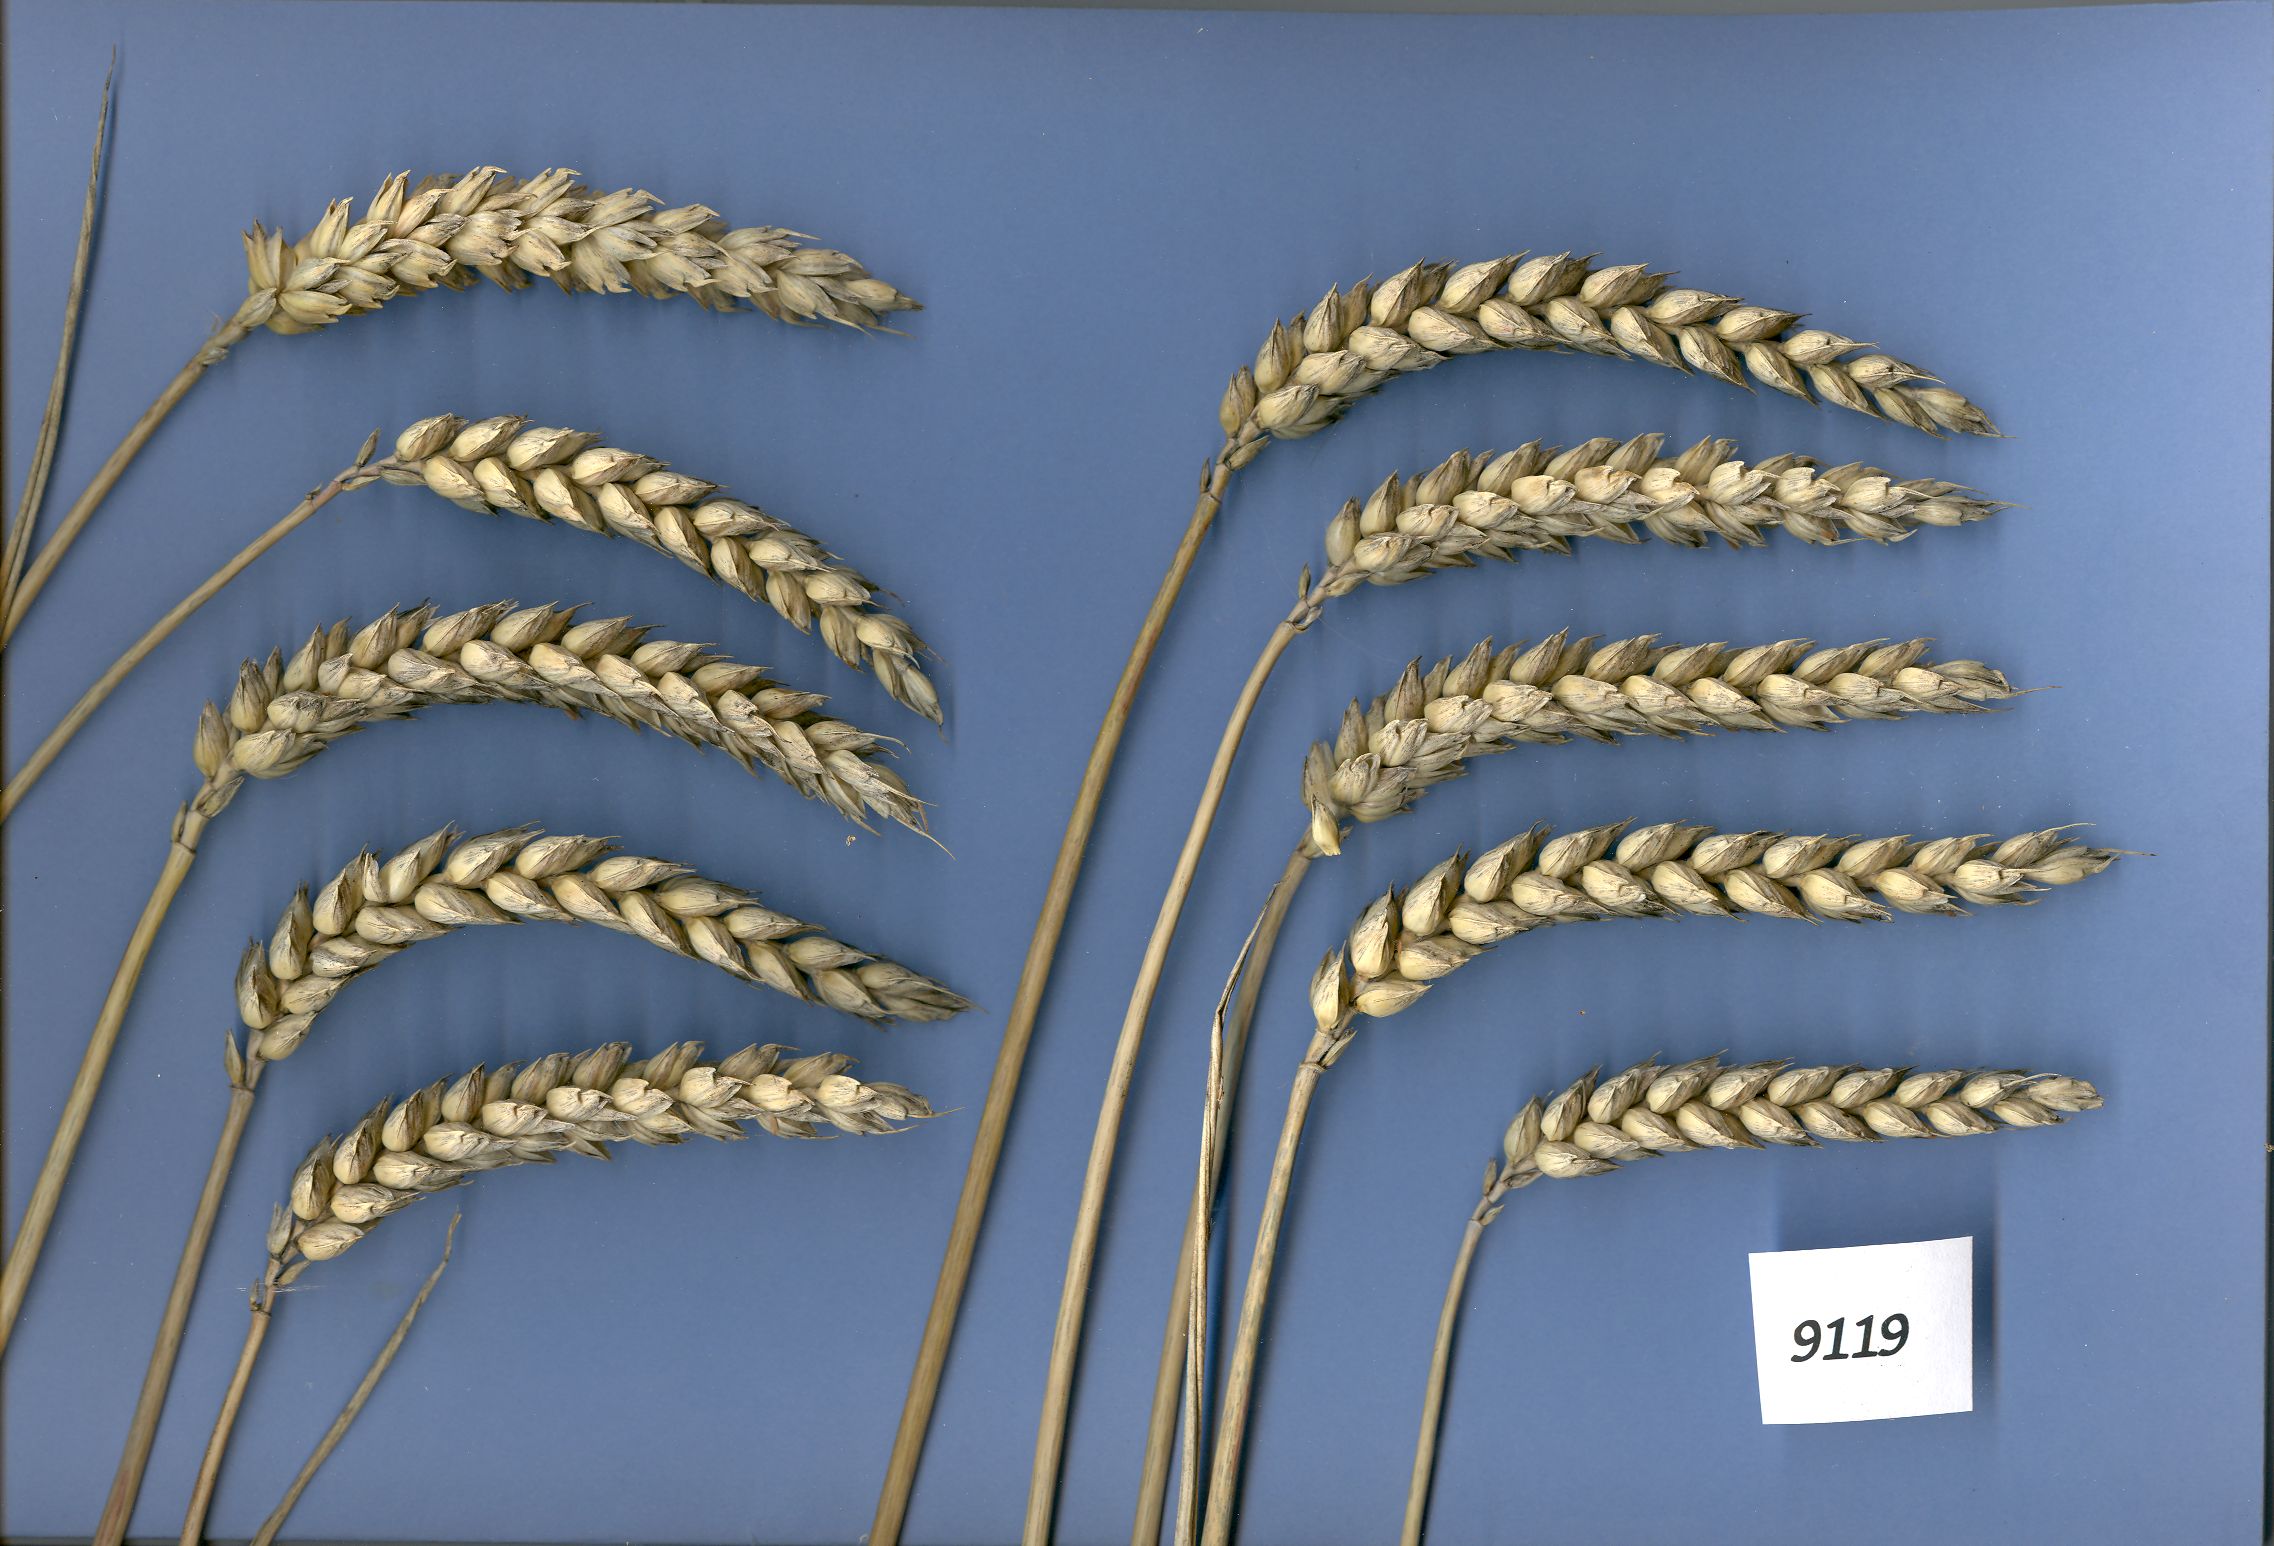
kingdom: Plantae
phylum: Tracheophyta
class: Liliopsida
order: Poales
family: Poaceae
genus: Triticum
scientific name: Triticum aestivum
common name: Common wheat
